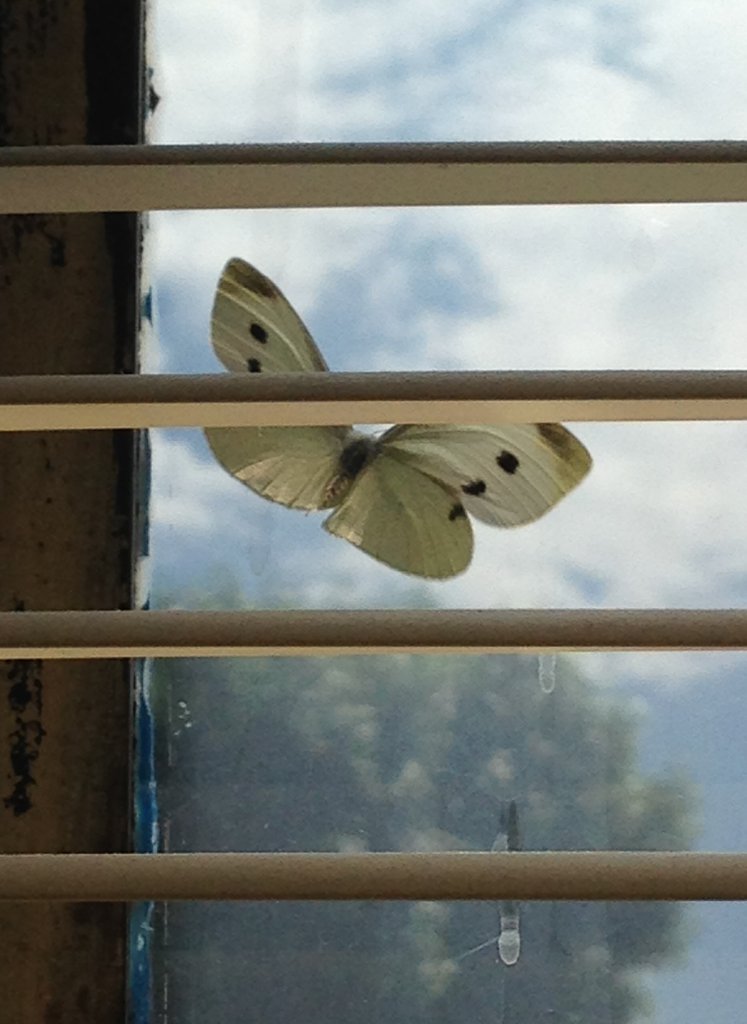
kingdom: Animalia
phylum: Arthropoda
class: Insecta
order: Lepidoptera
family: Pieridae
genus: Pieris
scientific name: Pieris rapae
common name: Cabbage White
